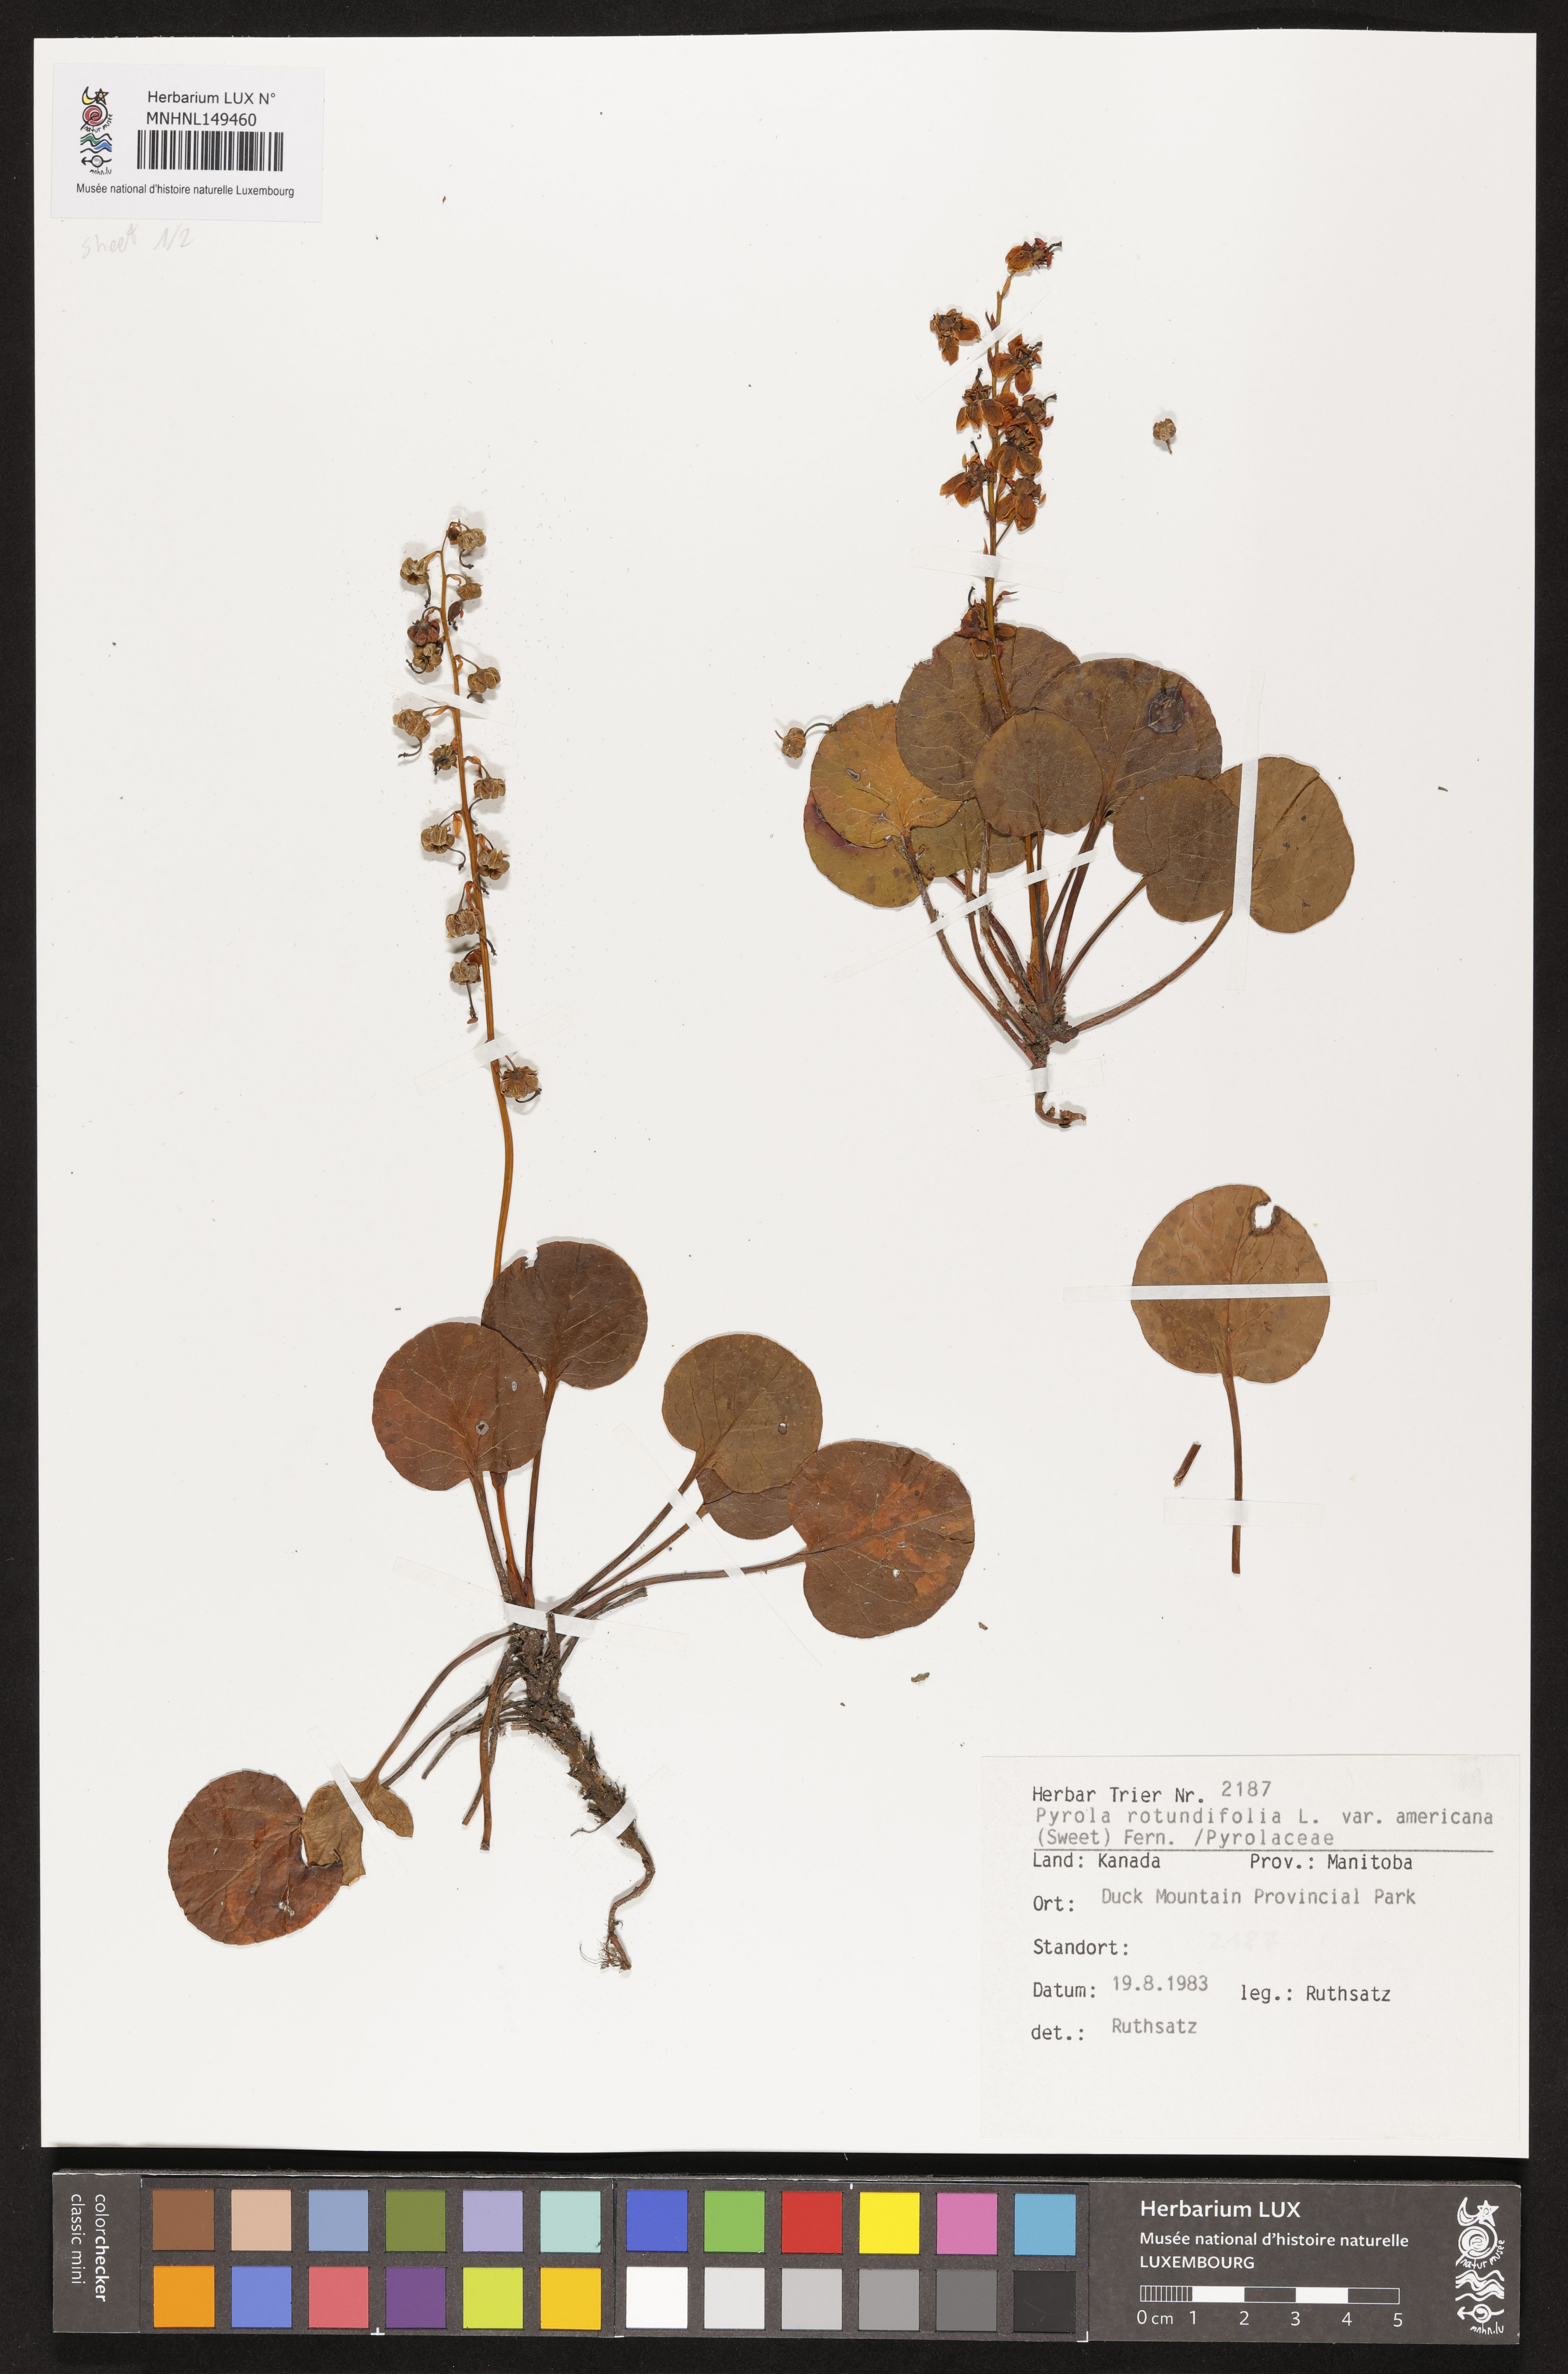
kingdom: Plantae
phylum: Tracheophyta
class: Magnoliopsida
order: Ericales
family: Ericaceae
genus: Pyrola
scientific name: Pyrola americana
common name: American wintergreen
